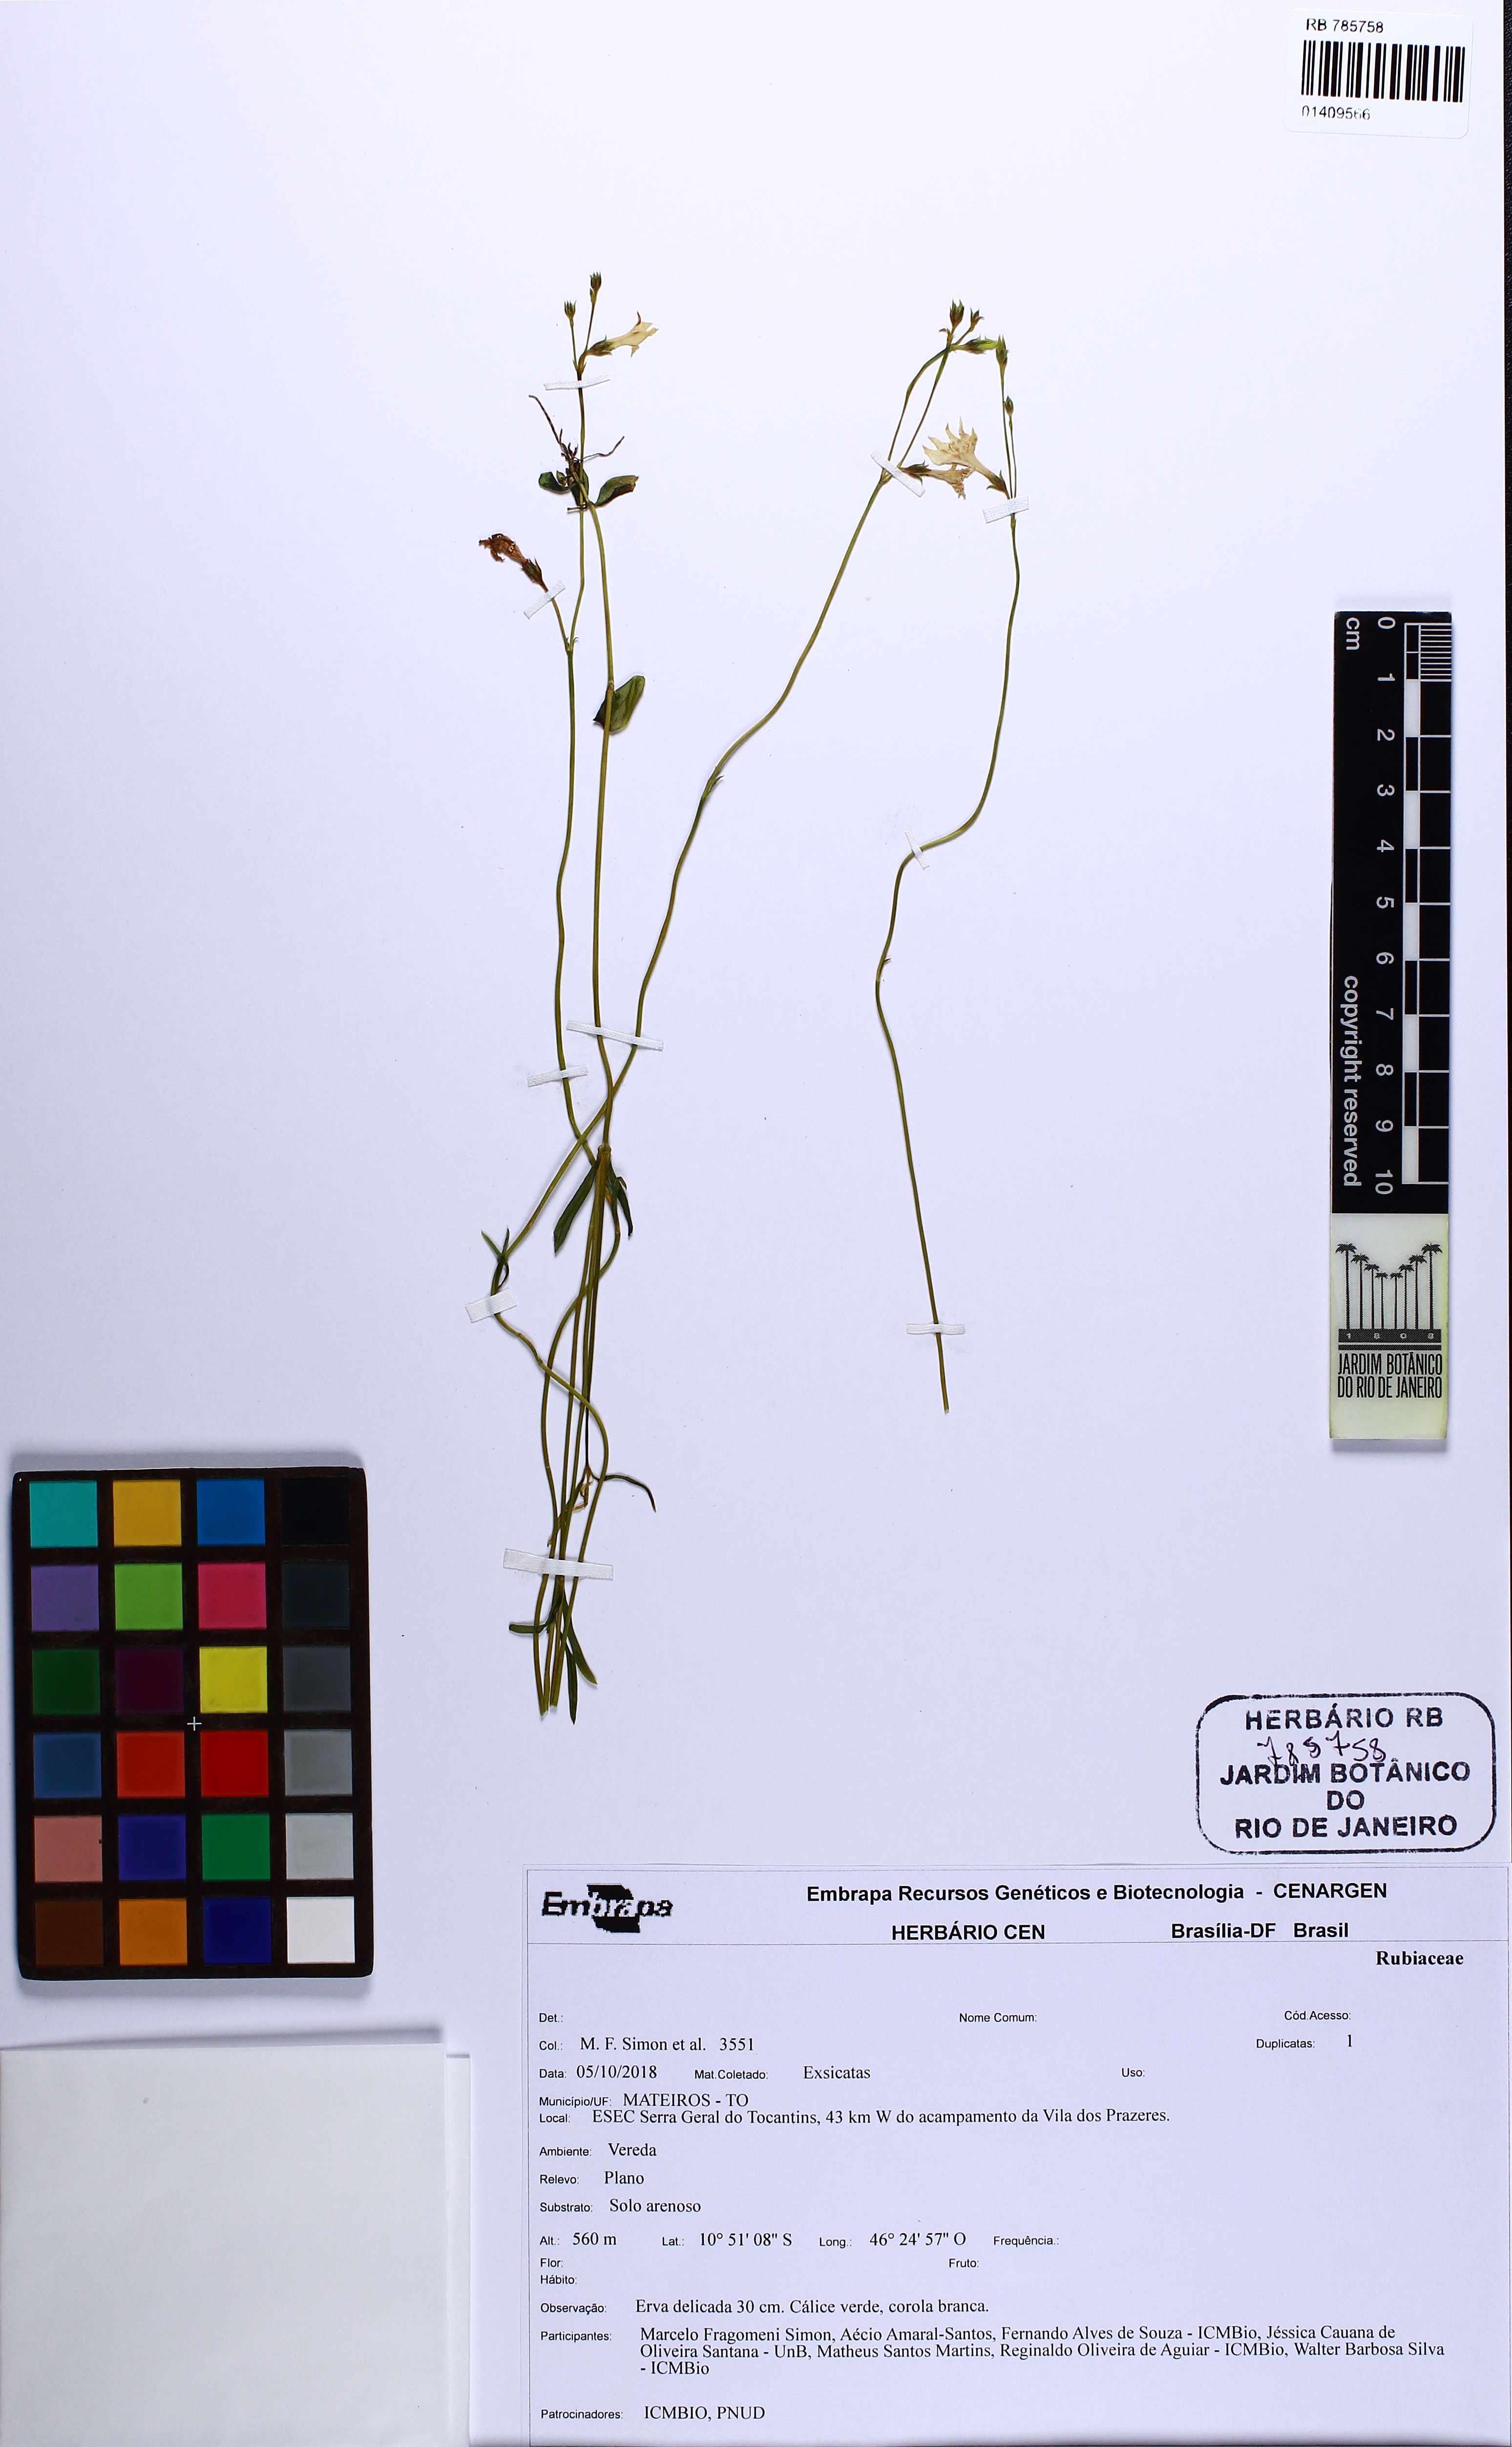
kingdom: Plantae
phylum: Tracheophyta
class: Magnoliopsida
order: Gentianales
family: Gentianaceae
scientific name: Gentianaceae
